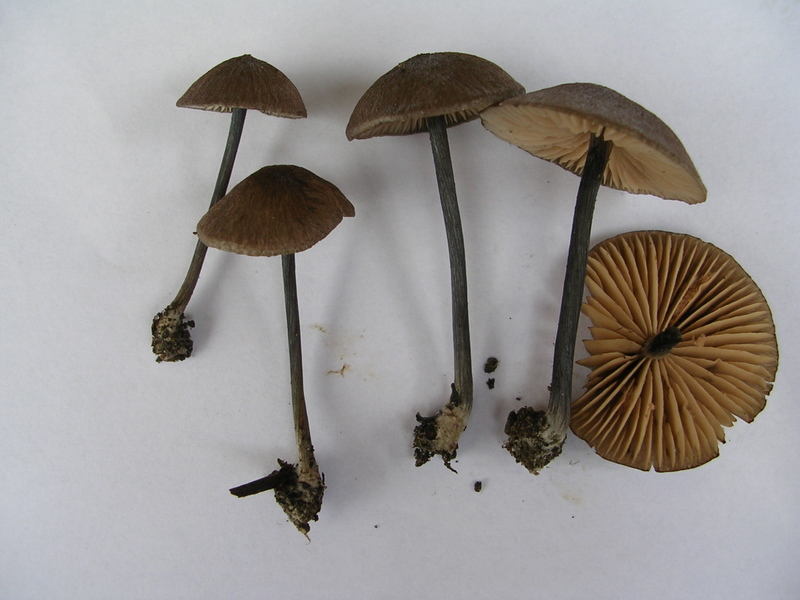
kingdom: Fungi
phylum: Basidiomycota
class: Agaricomycetes
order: Agaricales
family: Entolomataceae
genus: Entoloma
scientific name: Entoloma placidum
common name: bøge-rødblad
